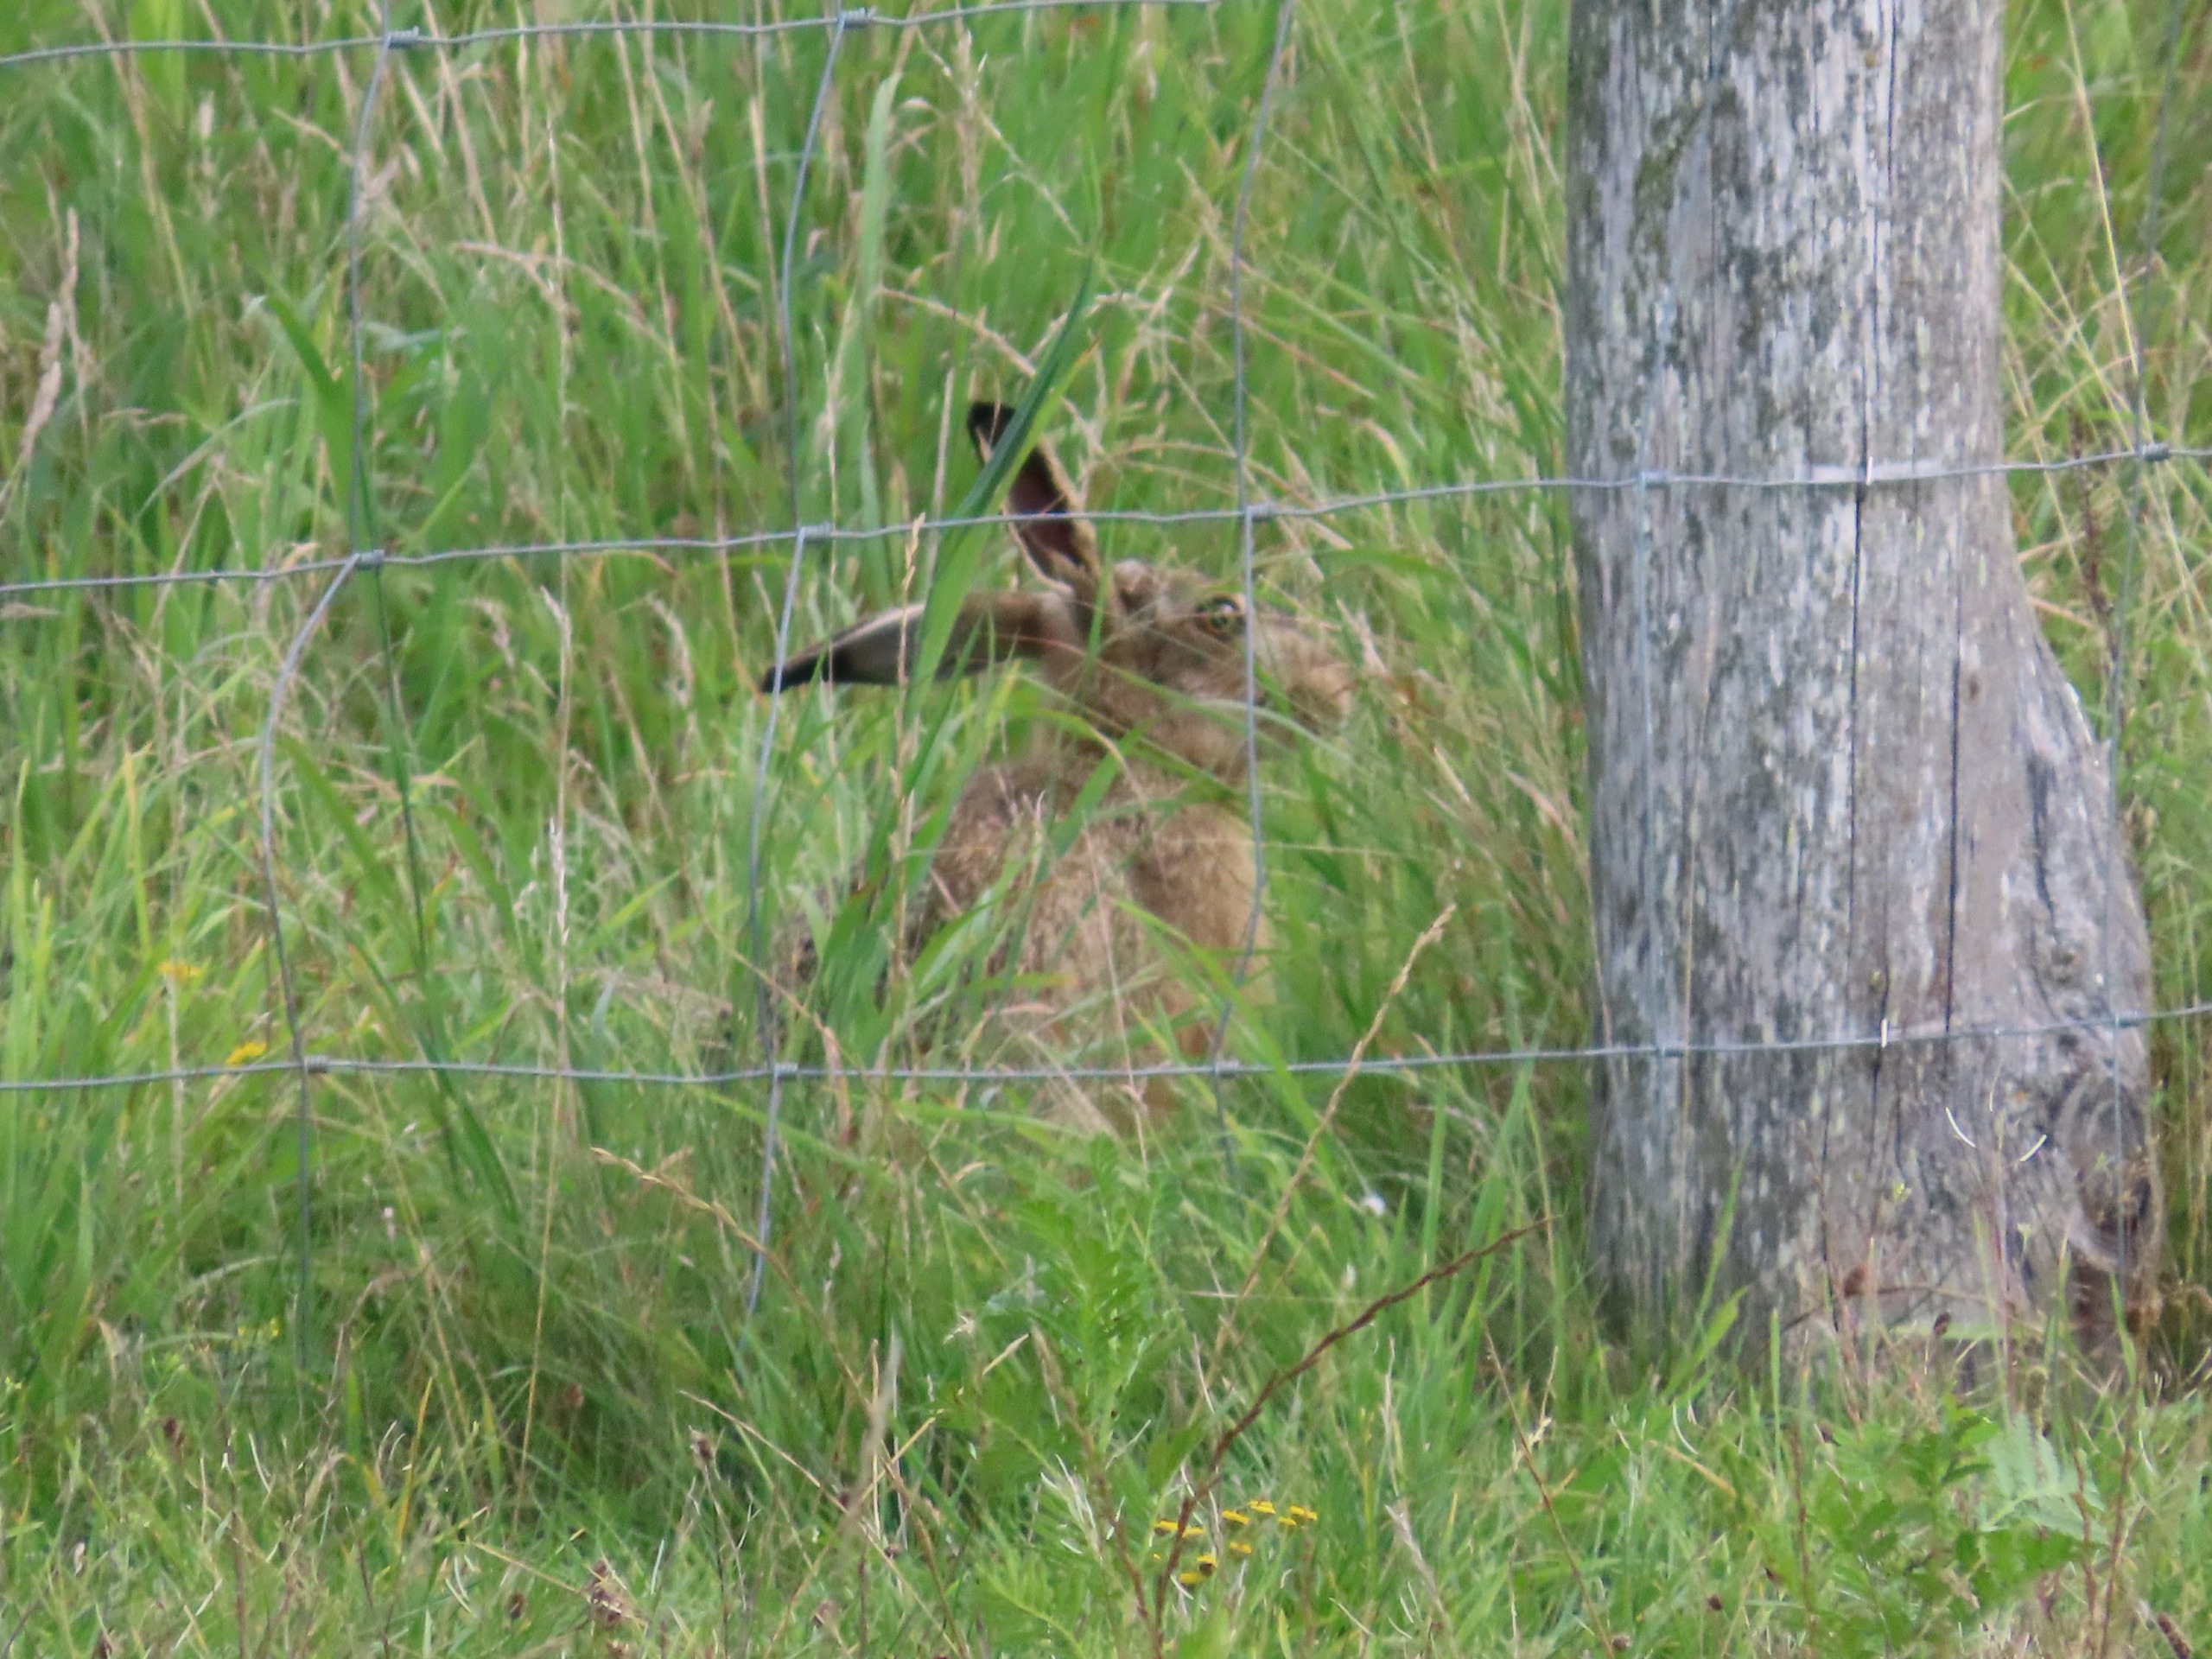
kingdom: Animalia
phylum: Chordata
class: Mammalia
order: Lagomorpha
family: Leporidae
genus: Lepus
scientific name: Lepus europaeus
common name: Hare
